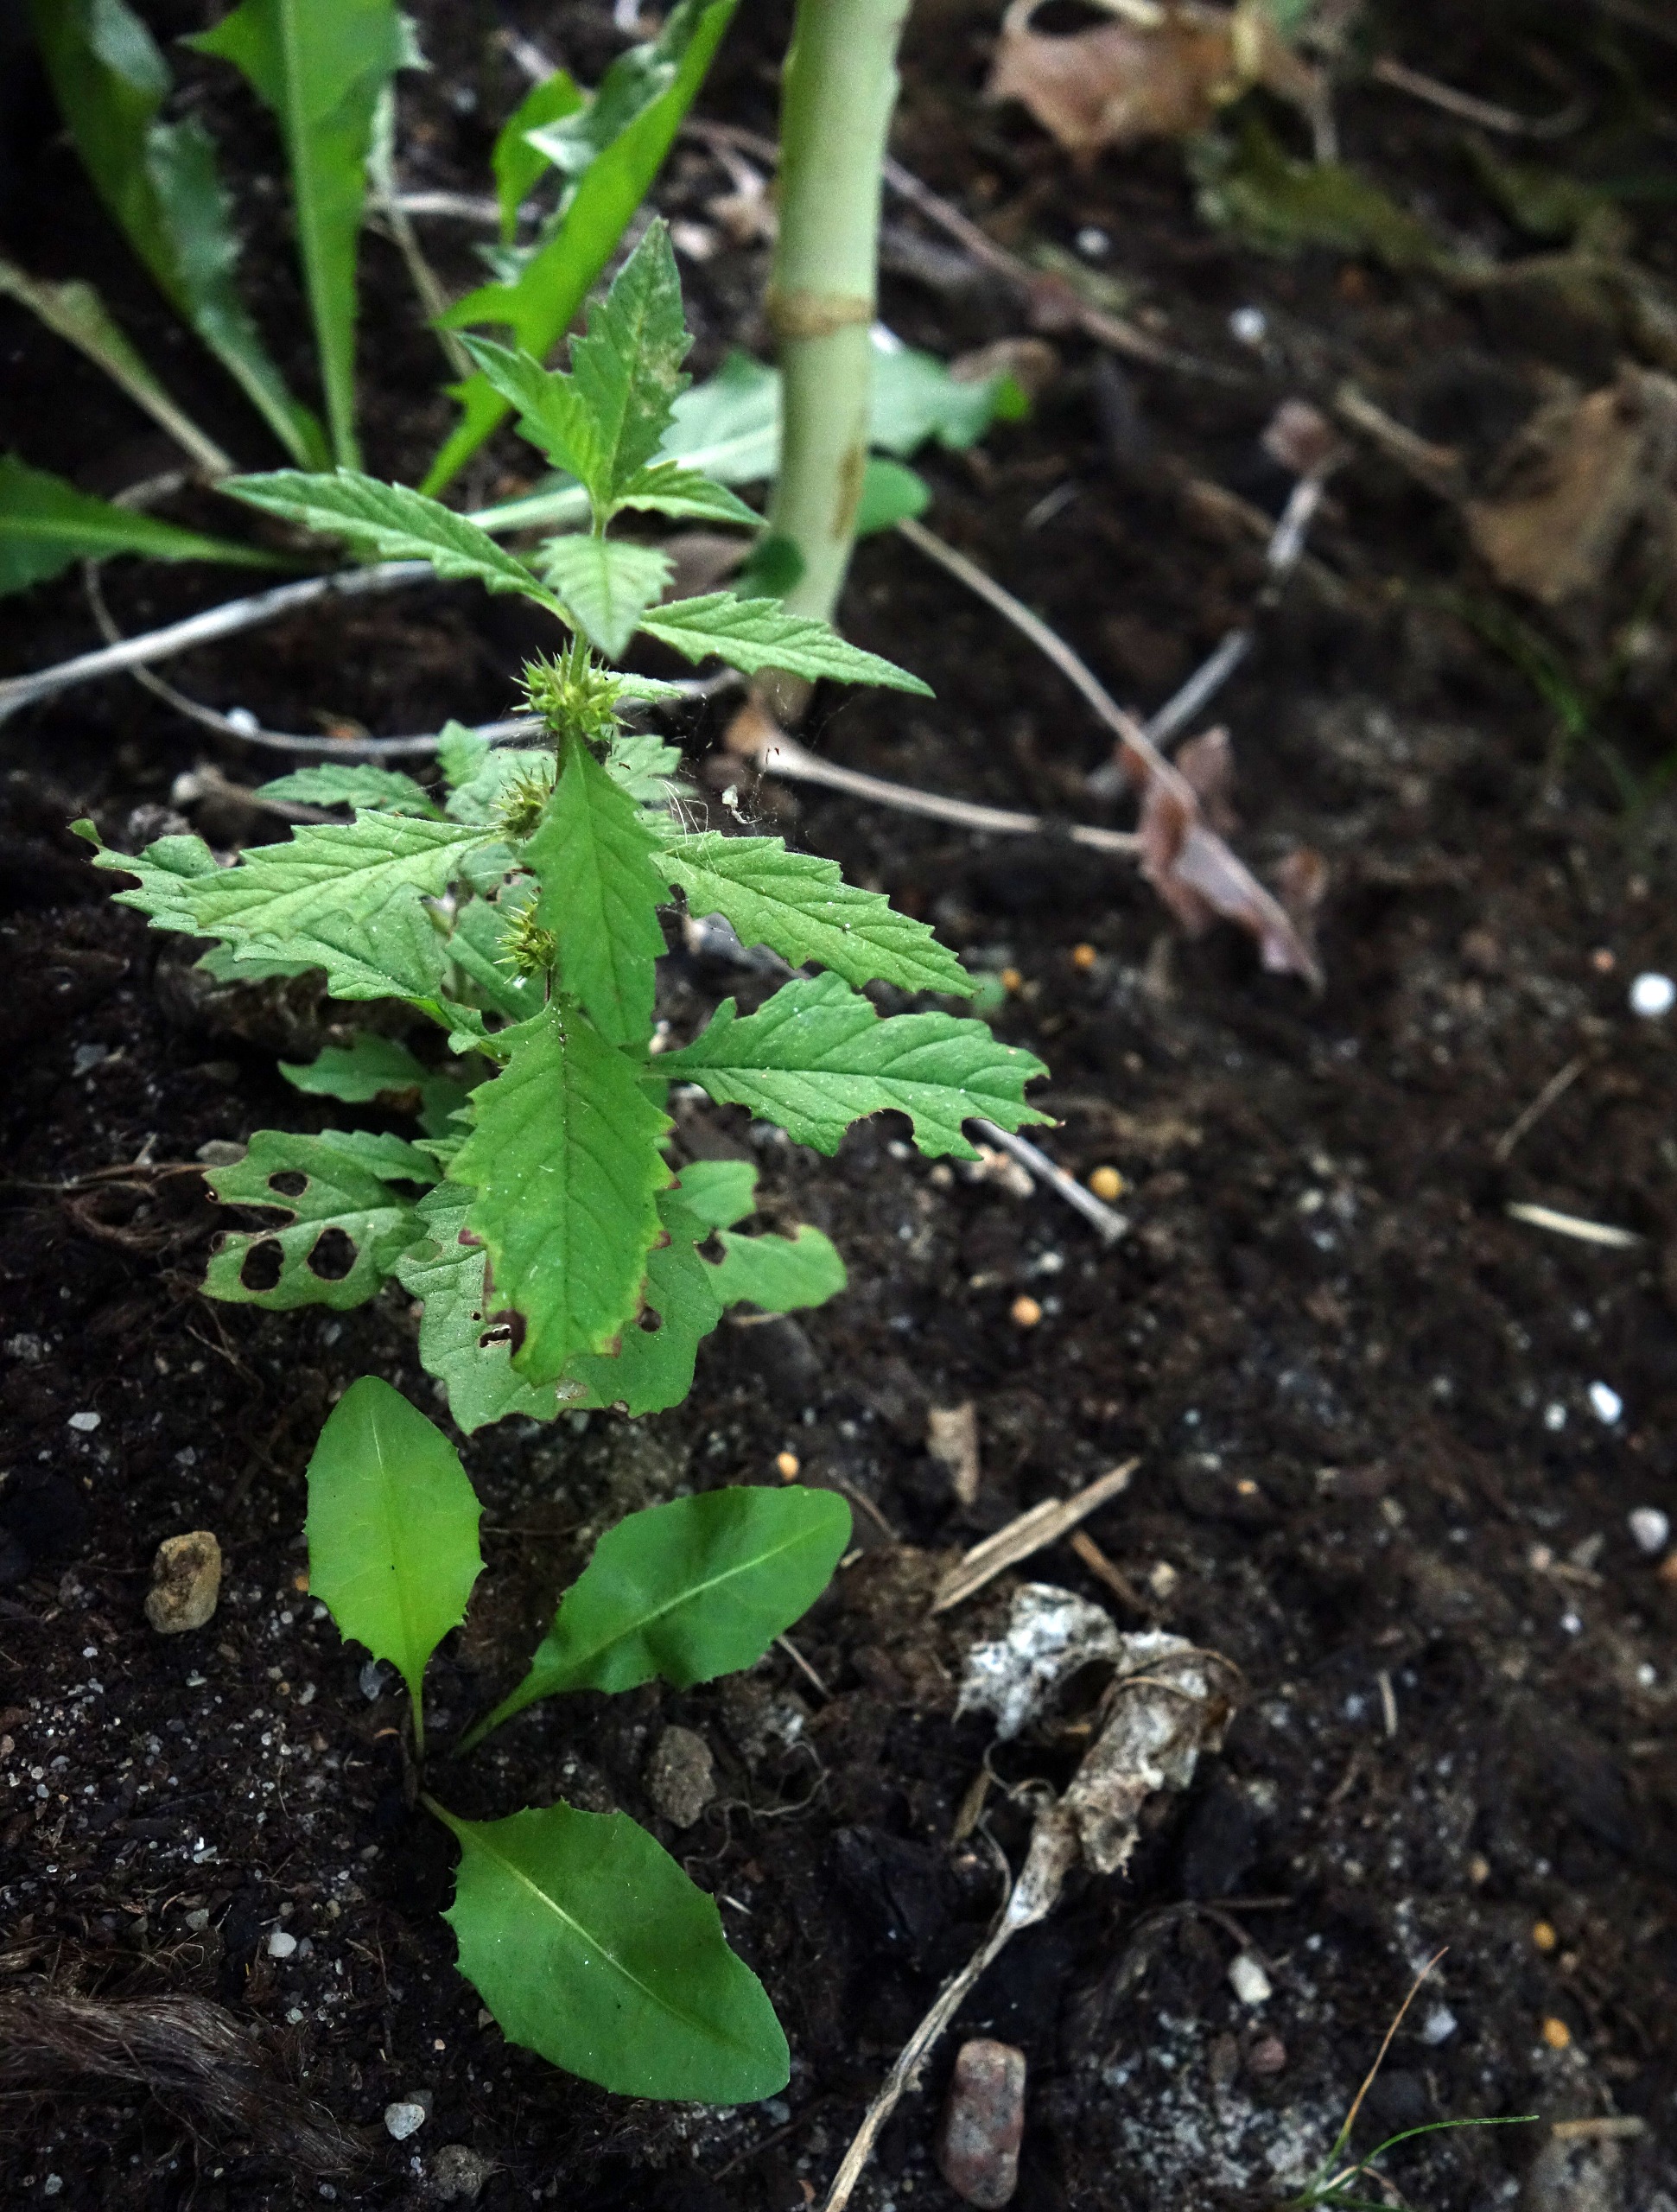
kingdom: Plantae
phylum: Tracheophyta
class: Magnoliopsida
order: Lamiales
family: Lamiaceae
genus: Lycopus
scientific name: Lycopus europaeus
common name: Sværtevæld
